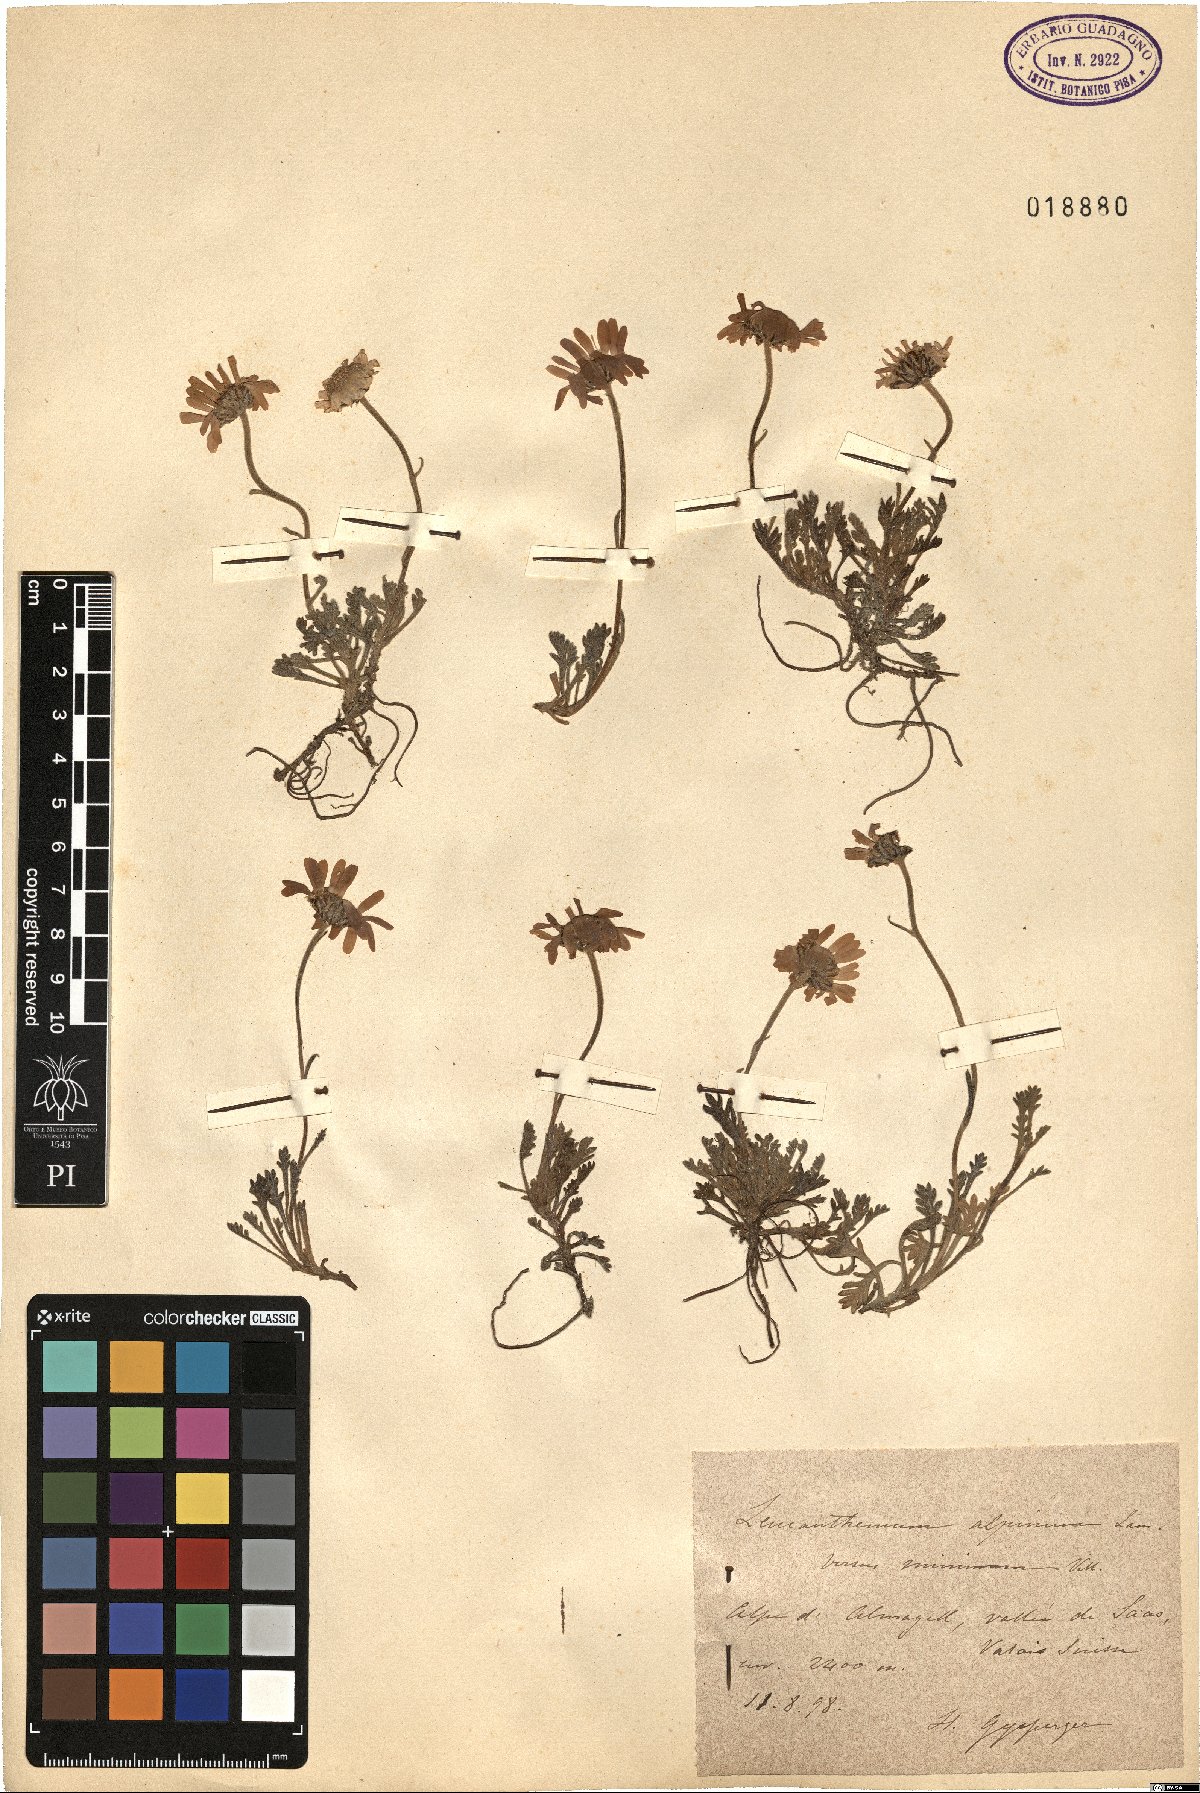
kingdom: Plantae
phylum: Tracheophyta
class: Magnoliopsida
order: Asterales
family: Asteraceae
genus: Leucanthemopsis
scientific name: Leucanthemopsis alpina
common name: Alpine moon daisy
